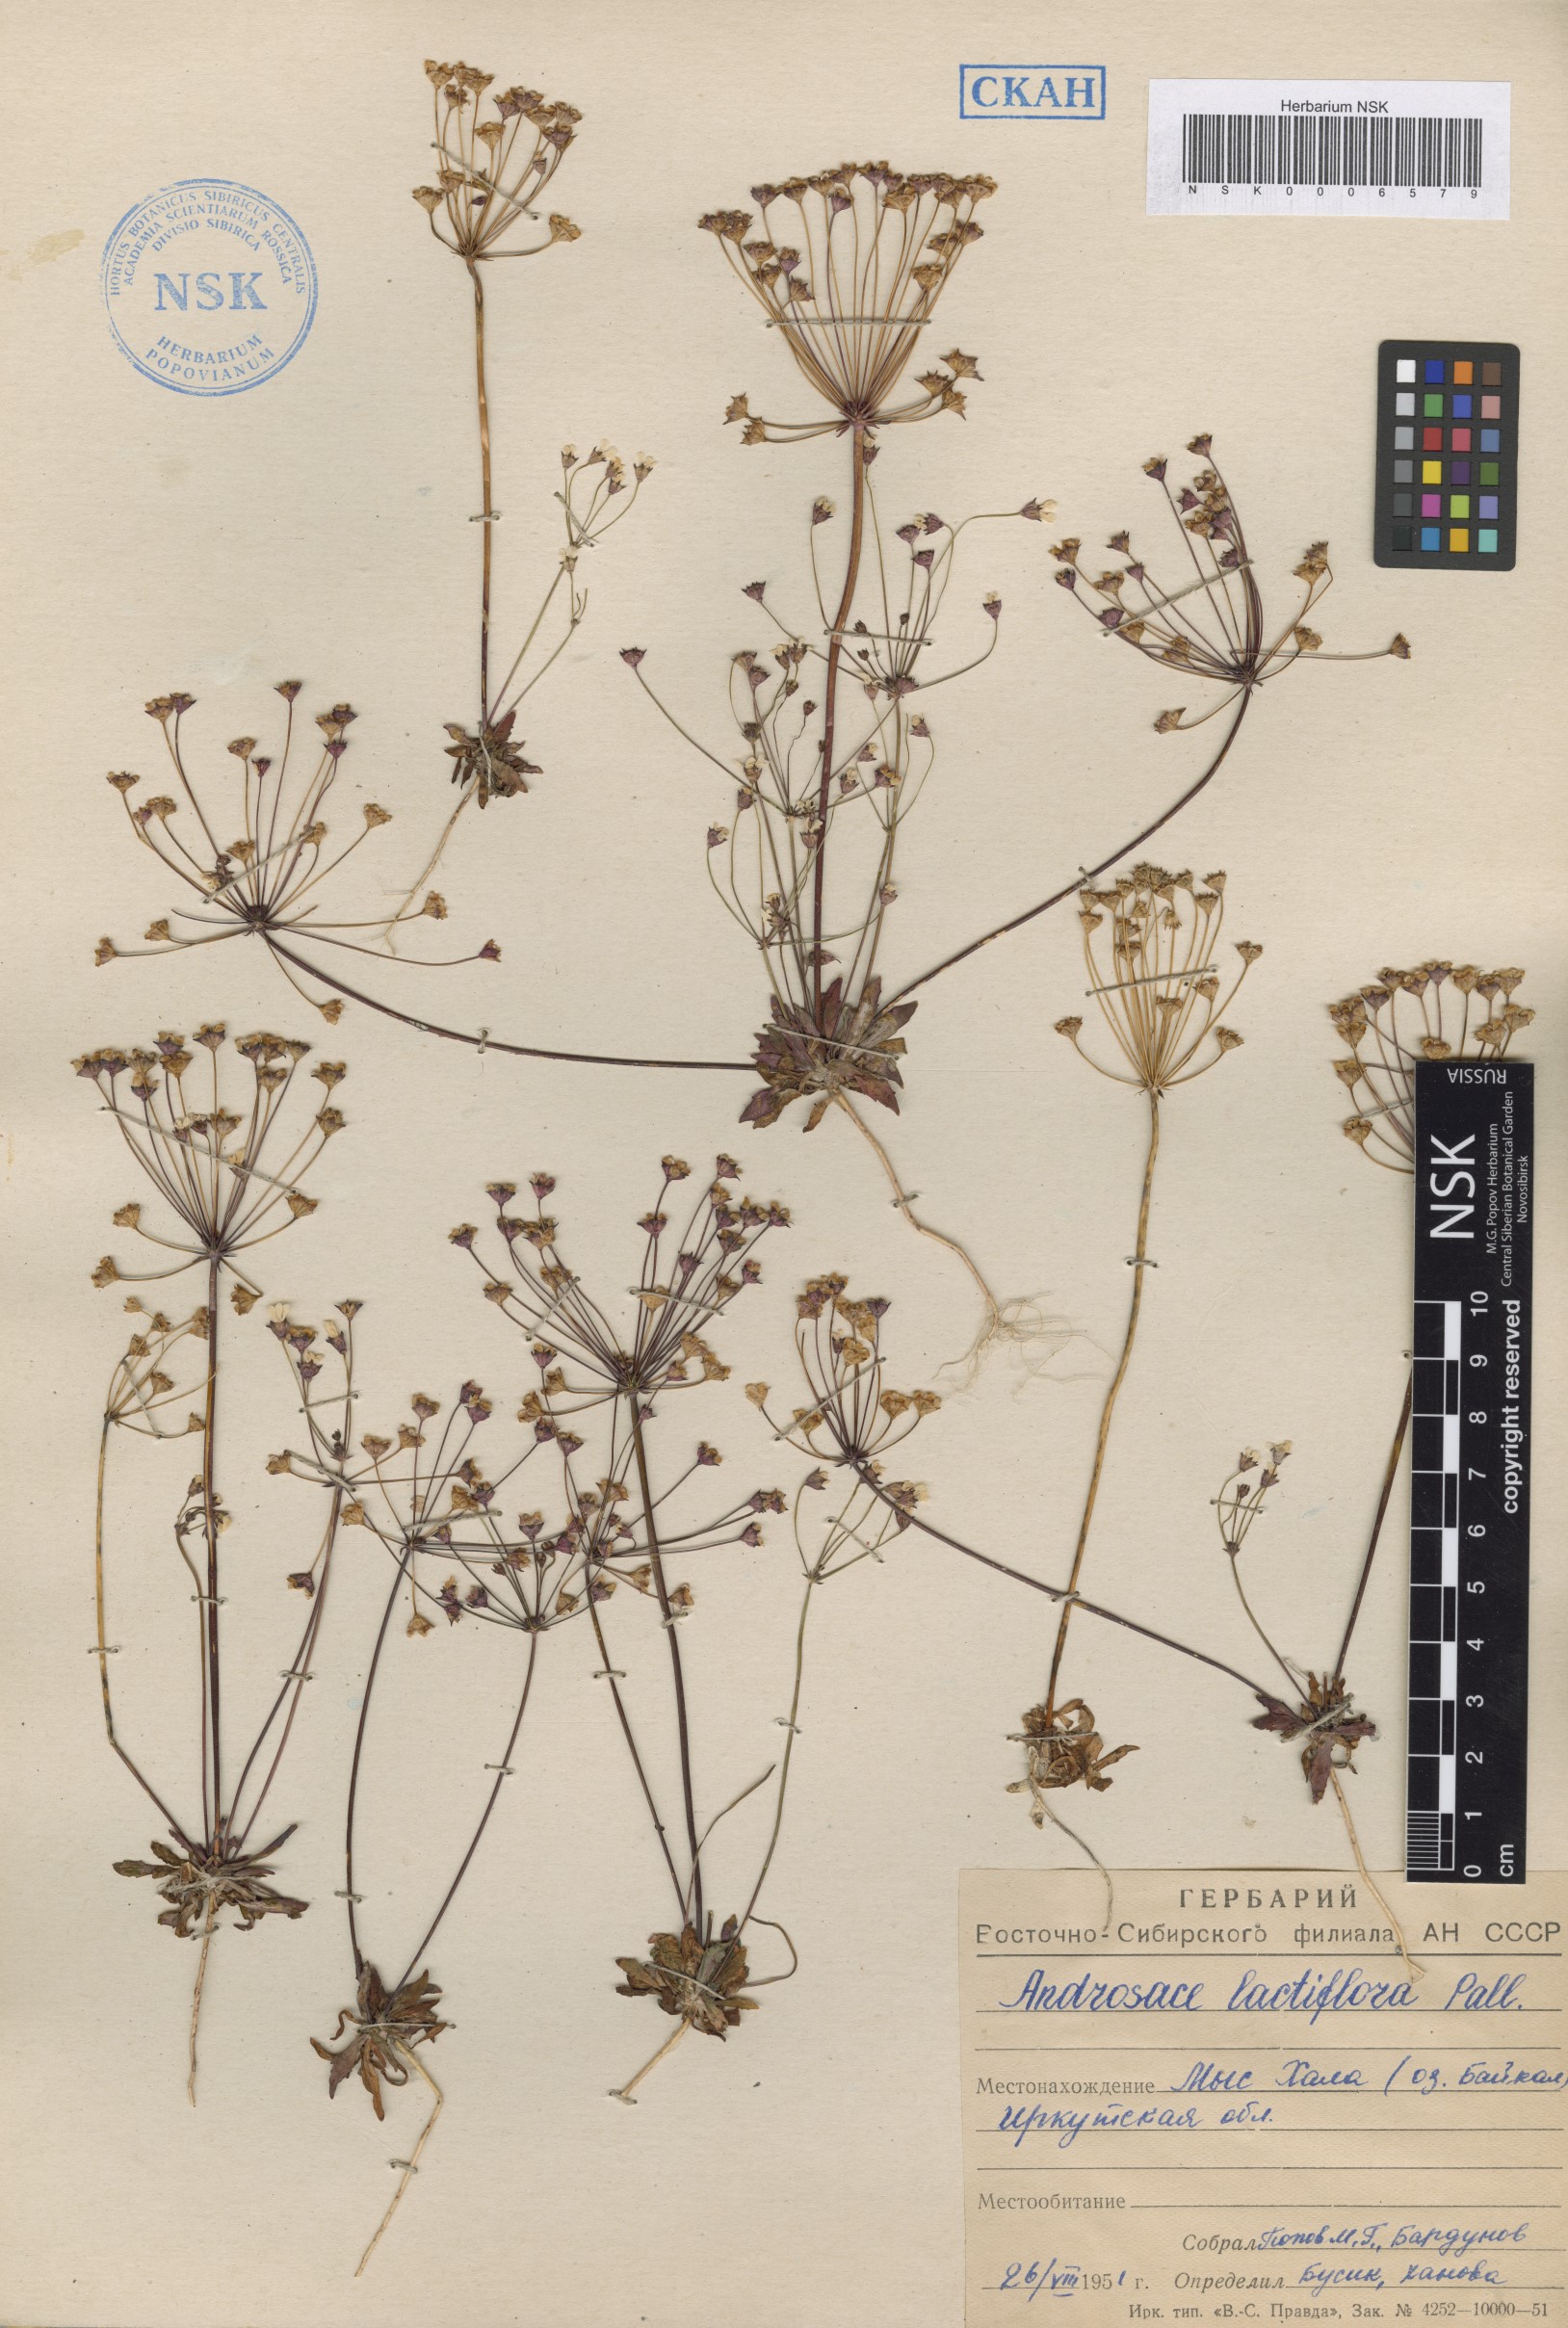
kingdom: Plantae
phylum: Tracheophyta
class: Magnoliopsida
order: Ericales
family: Primulaceae
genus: Androsace
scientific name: Androsace lactiflora
